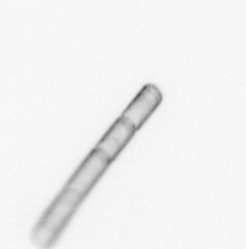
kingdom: Chromista
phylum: Ochrophyta
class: Bacillariophyceae
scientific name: Bacillariophyceae
